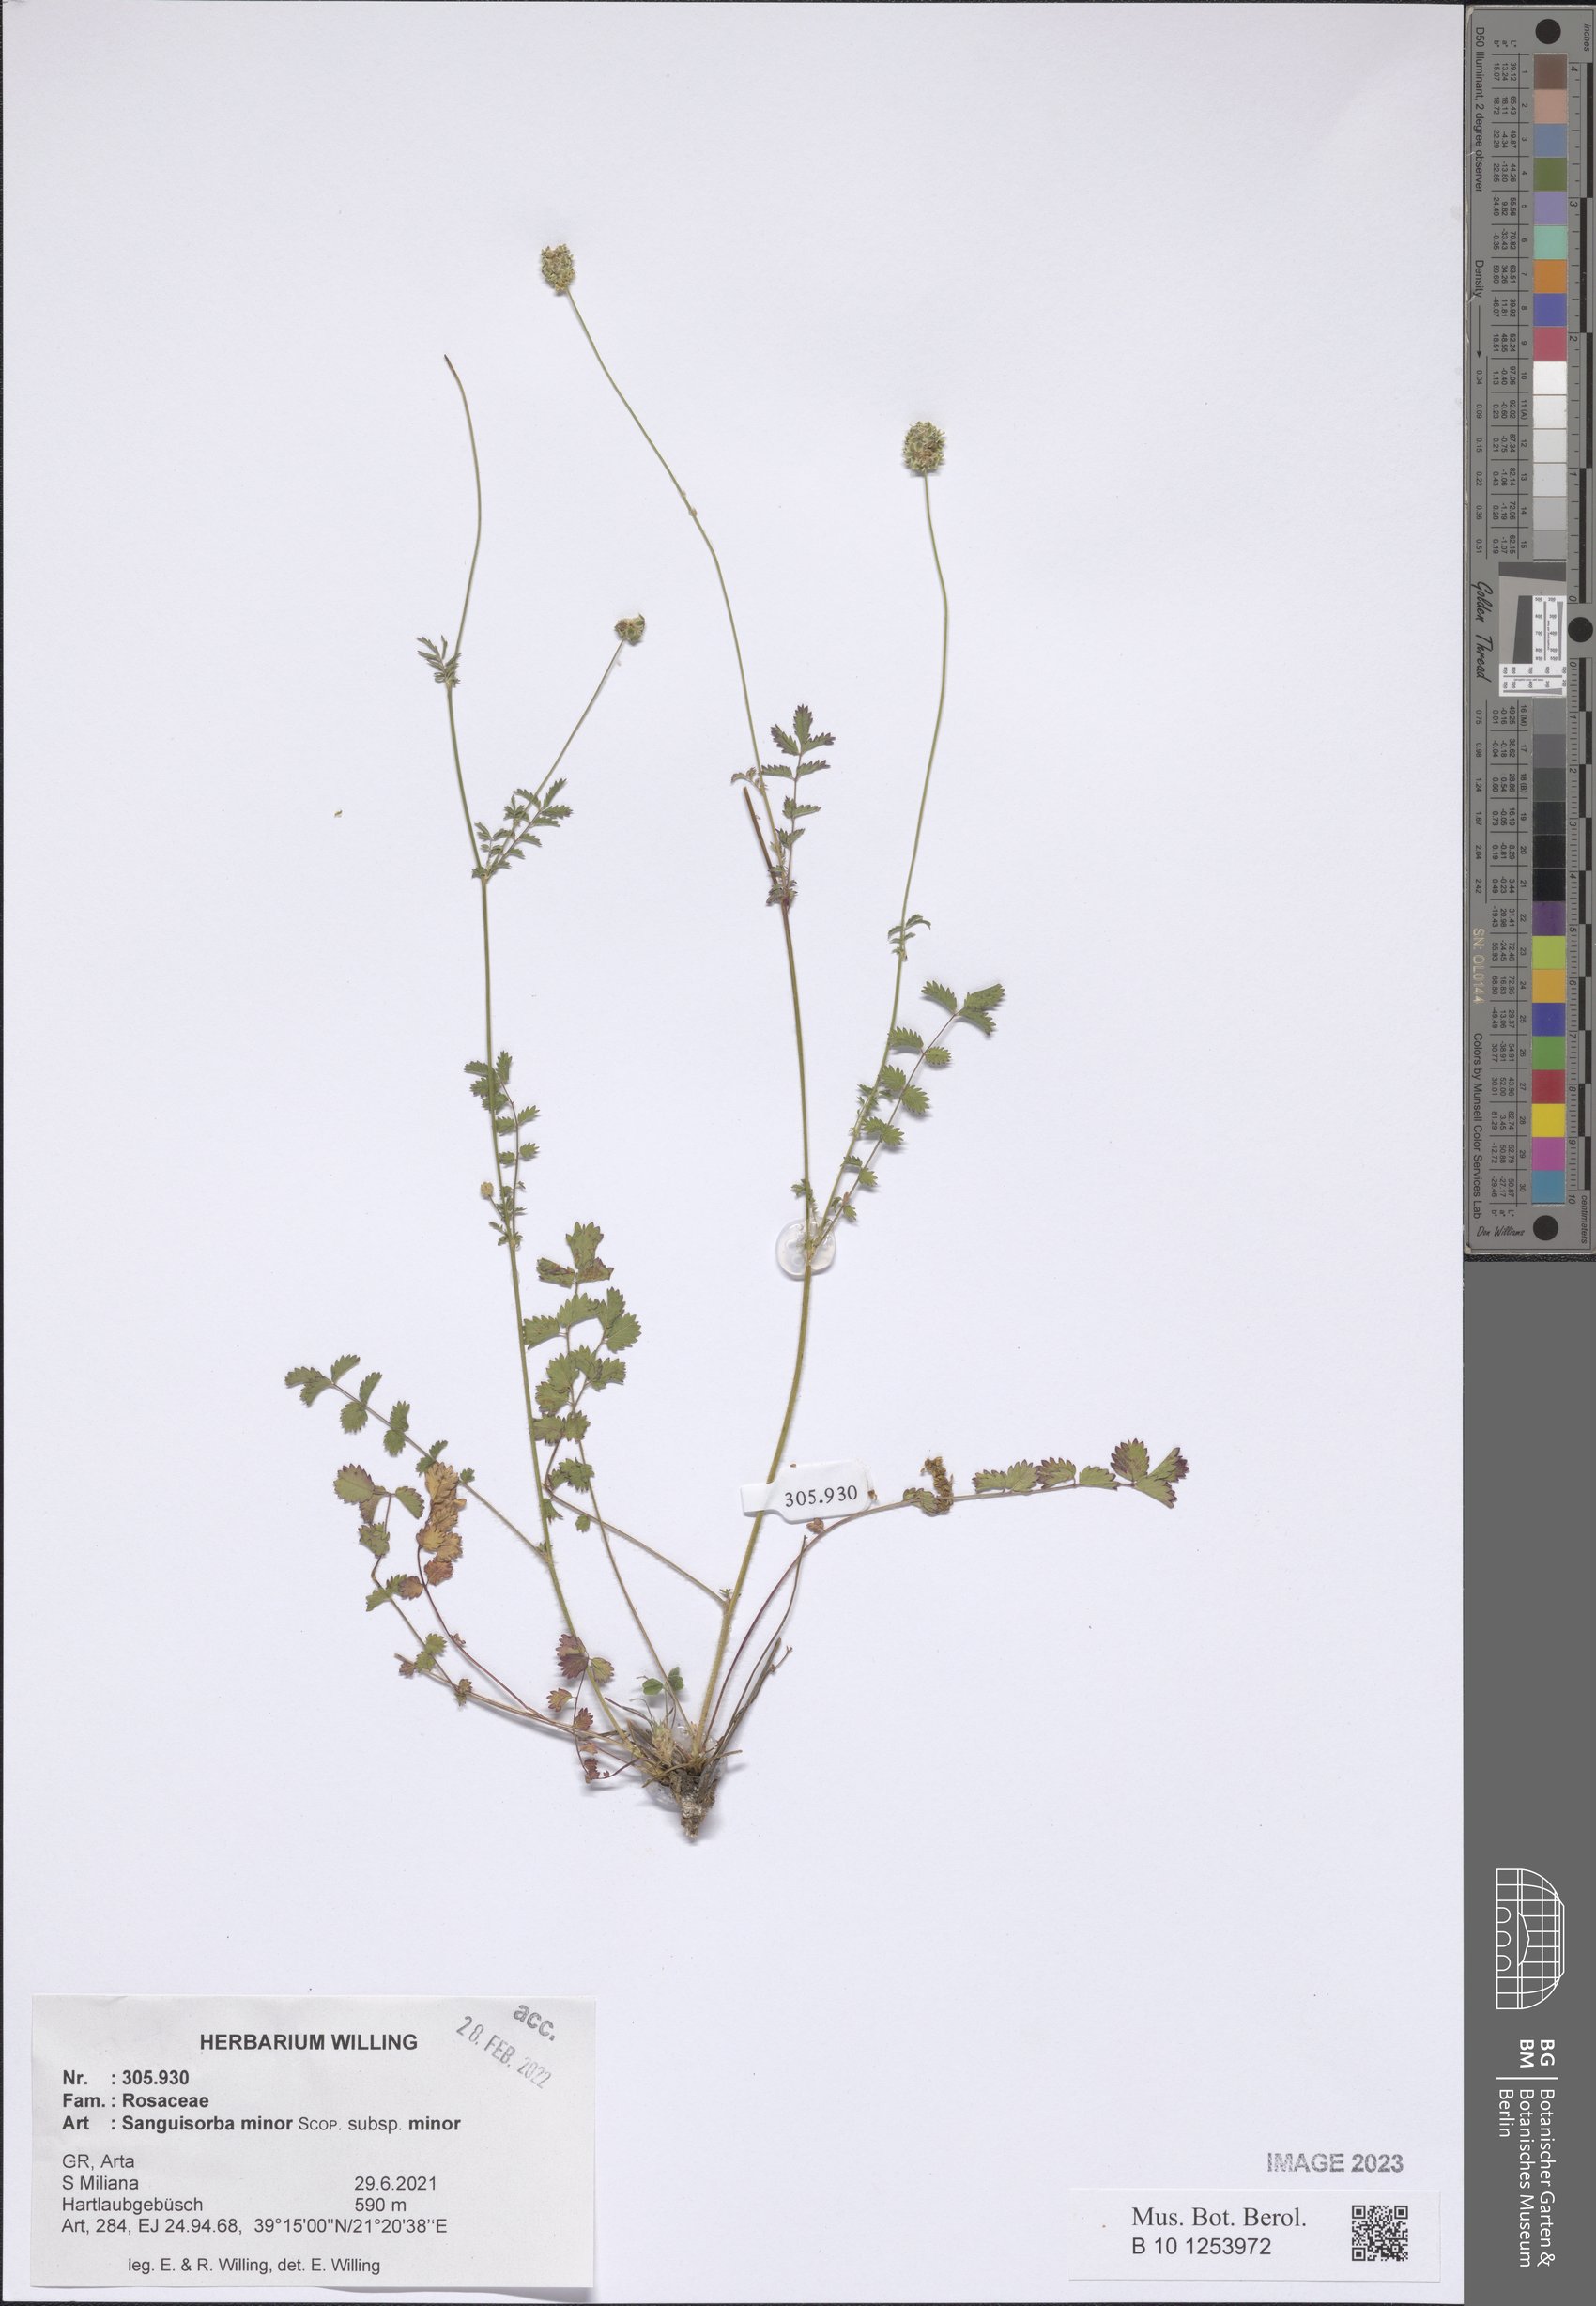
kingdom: Plantae
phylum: Tracheophyta
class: Magnoliopsida
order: Rosales
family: Rosaceae
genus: Poterium
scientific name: Poterium sanguisorba
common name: Salad burnet
